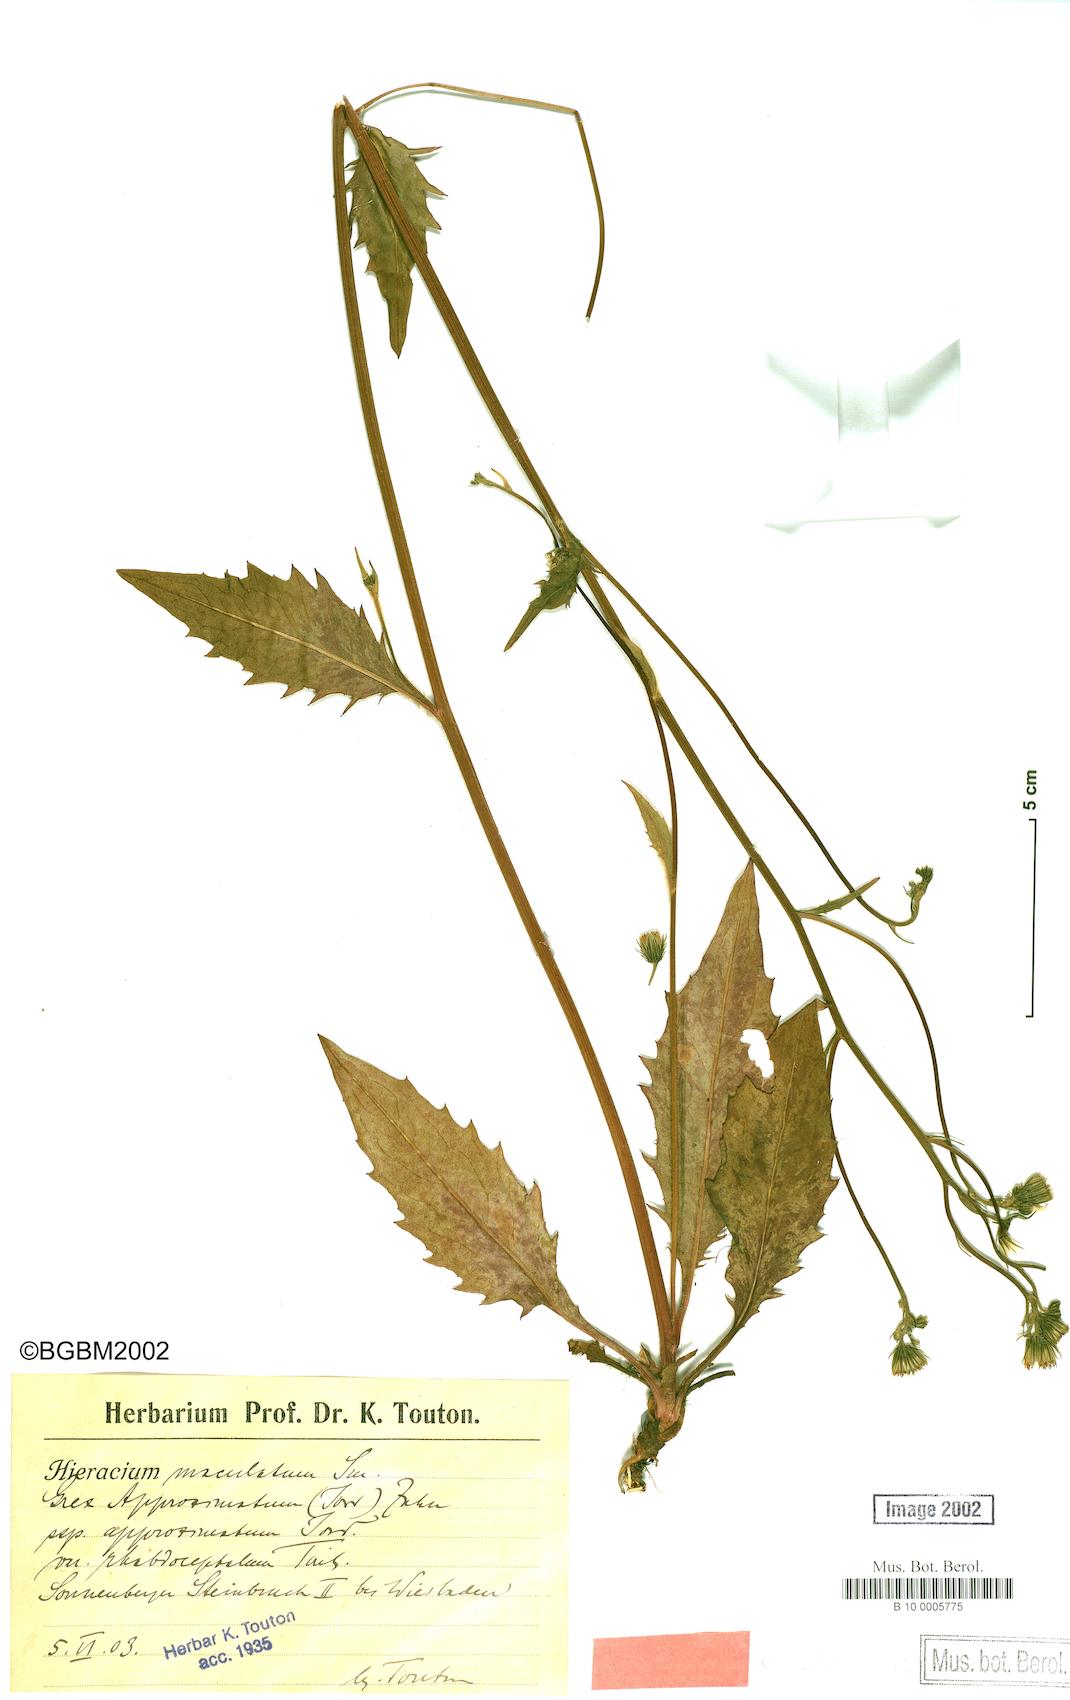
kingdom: Plantae
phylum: Tracheophyta
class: Magnoliopsida
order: Asterales
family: Asteraceae
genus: Hieracium
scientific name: Hieracium maculatum
